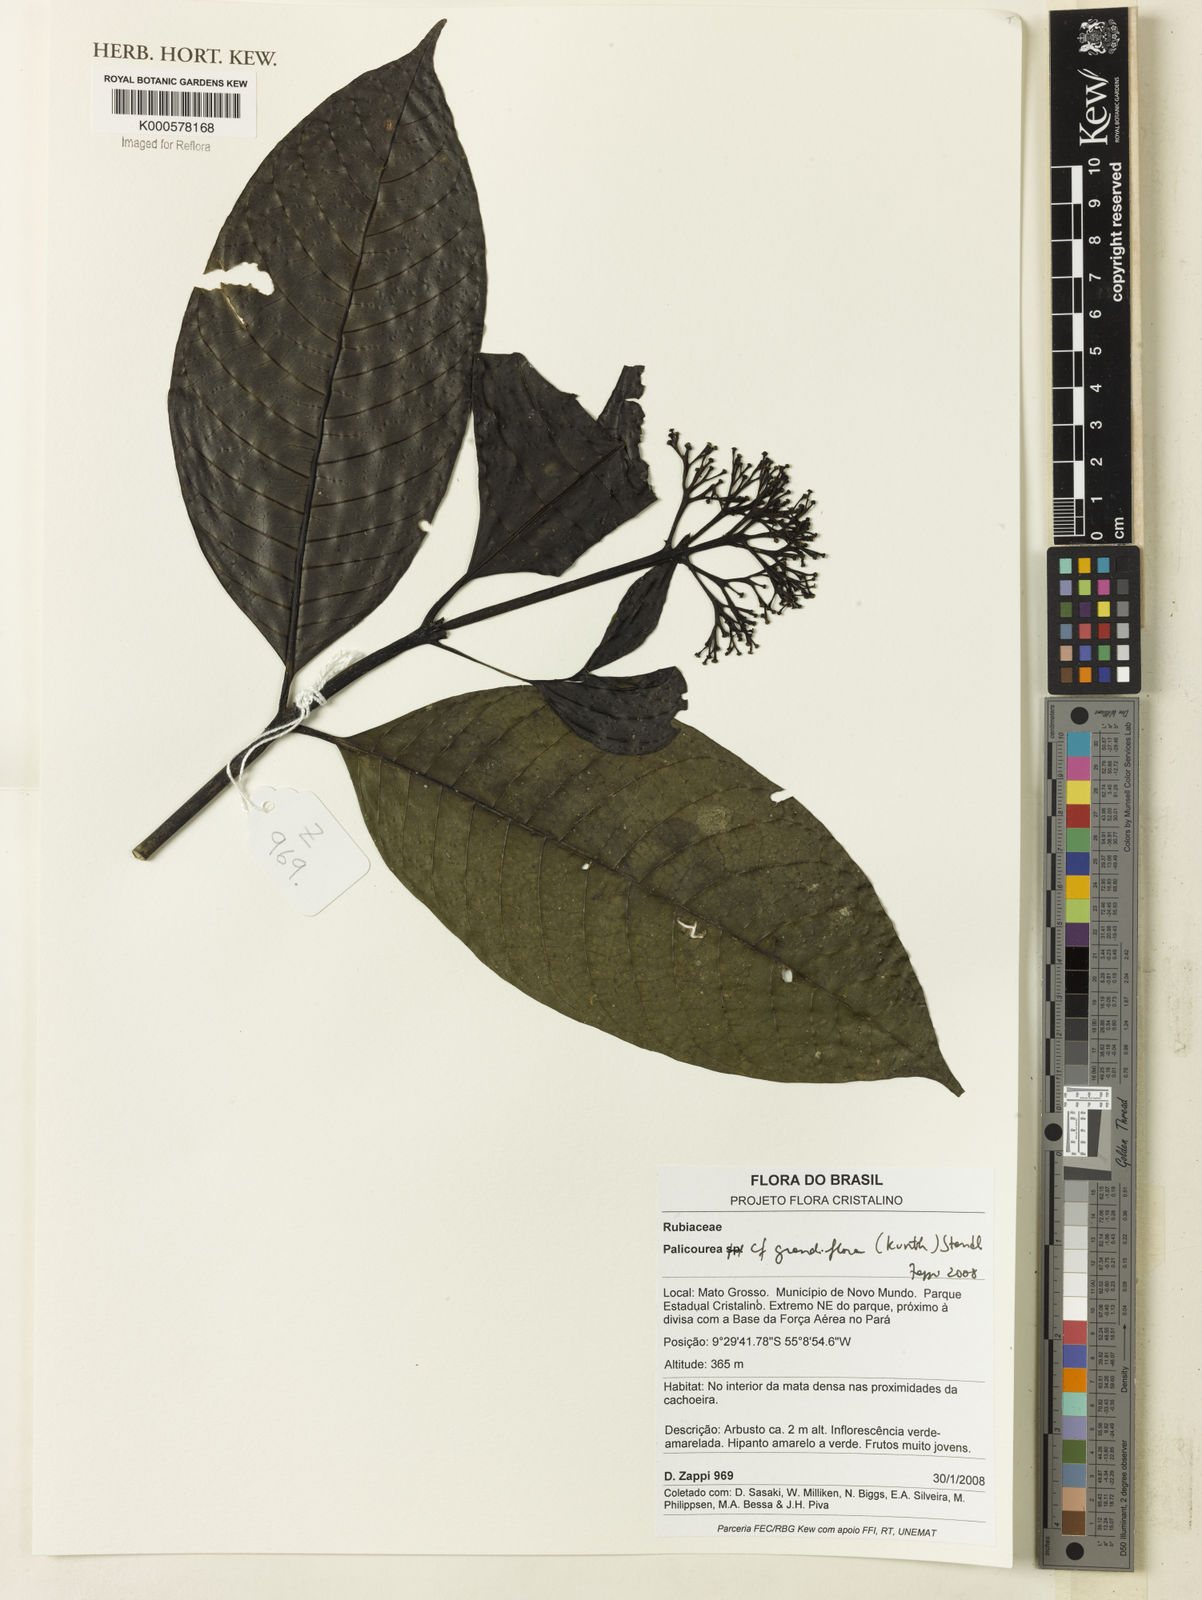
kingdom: Plantae
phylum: Tracheophyta
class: Magnoliopsida
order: Gentianales
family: Rubiaceae
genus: Palicourea
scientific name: Palicourea grandiflora
